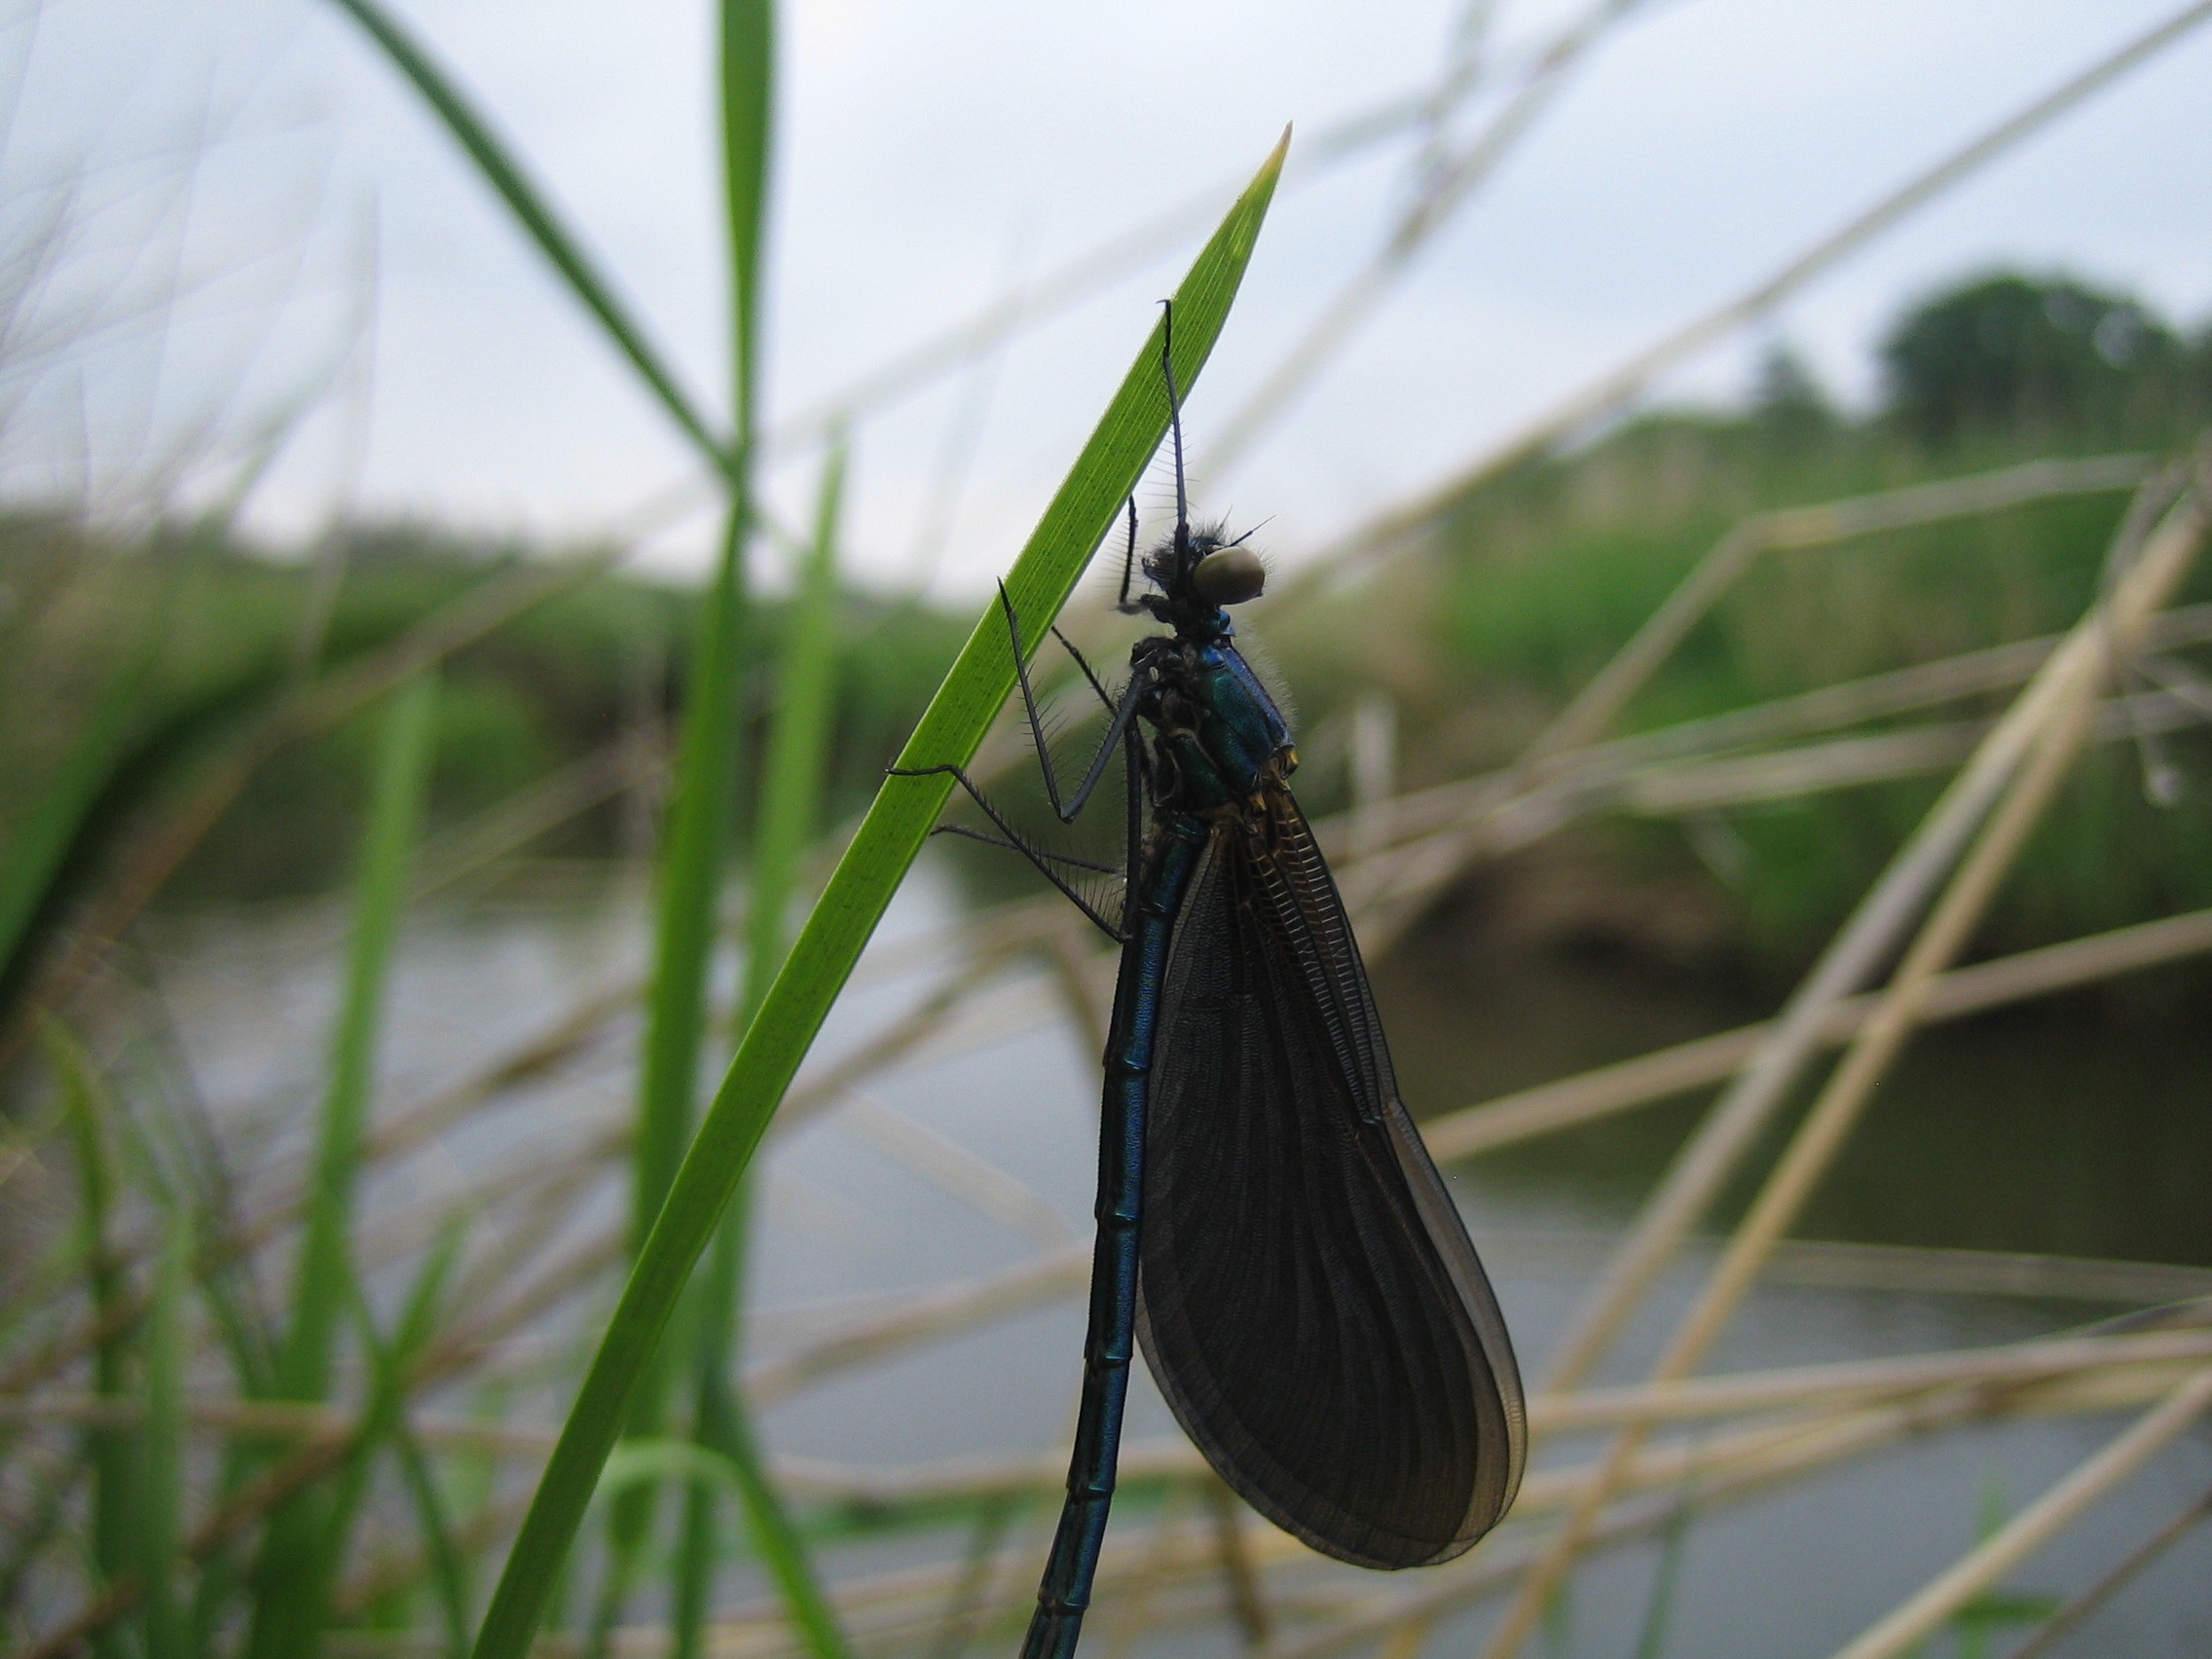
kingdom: Animalia
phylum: Arthropoda
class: Insecta
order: Odonata
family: Calopterygidae
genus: Calopteryx
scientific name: Calopteryx virgo
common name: Blåvinget pragtvandnymfe
